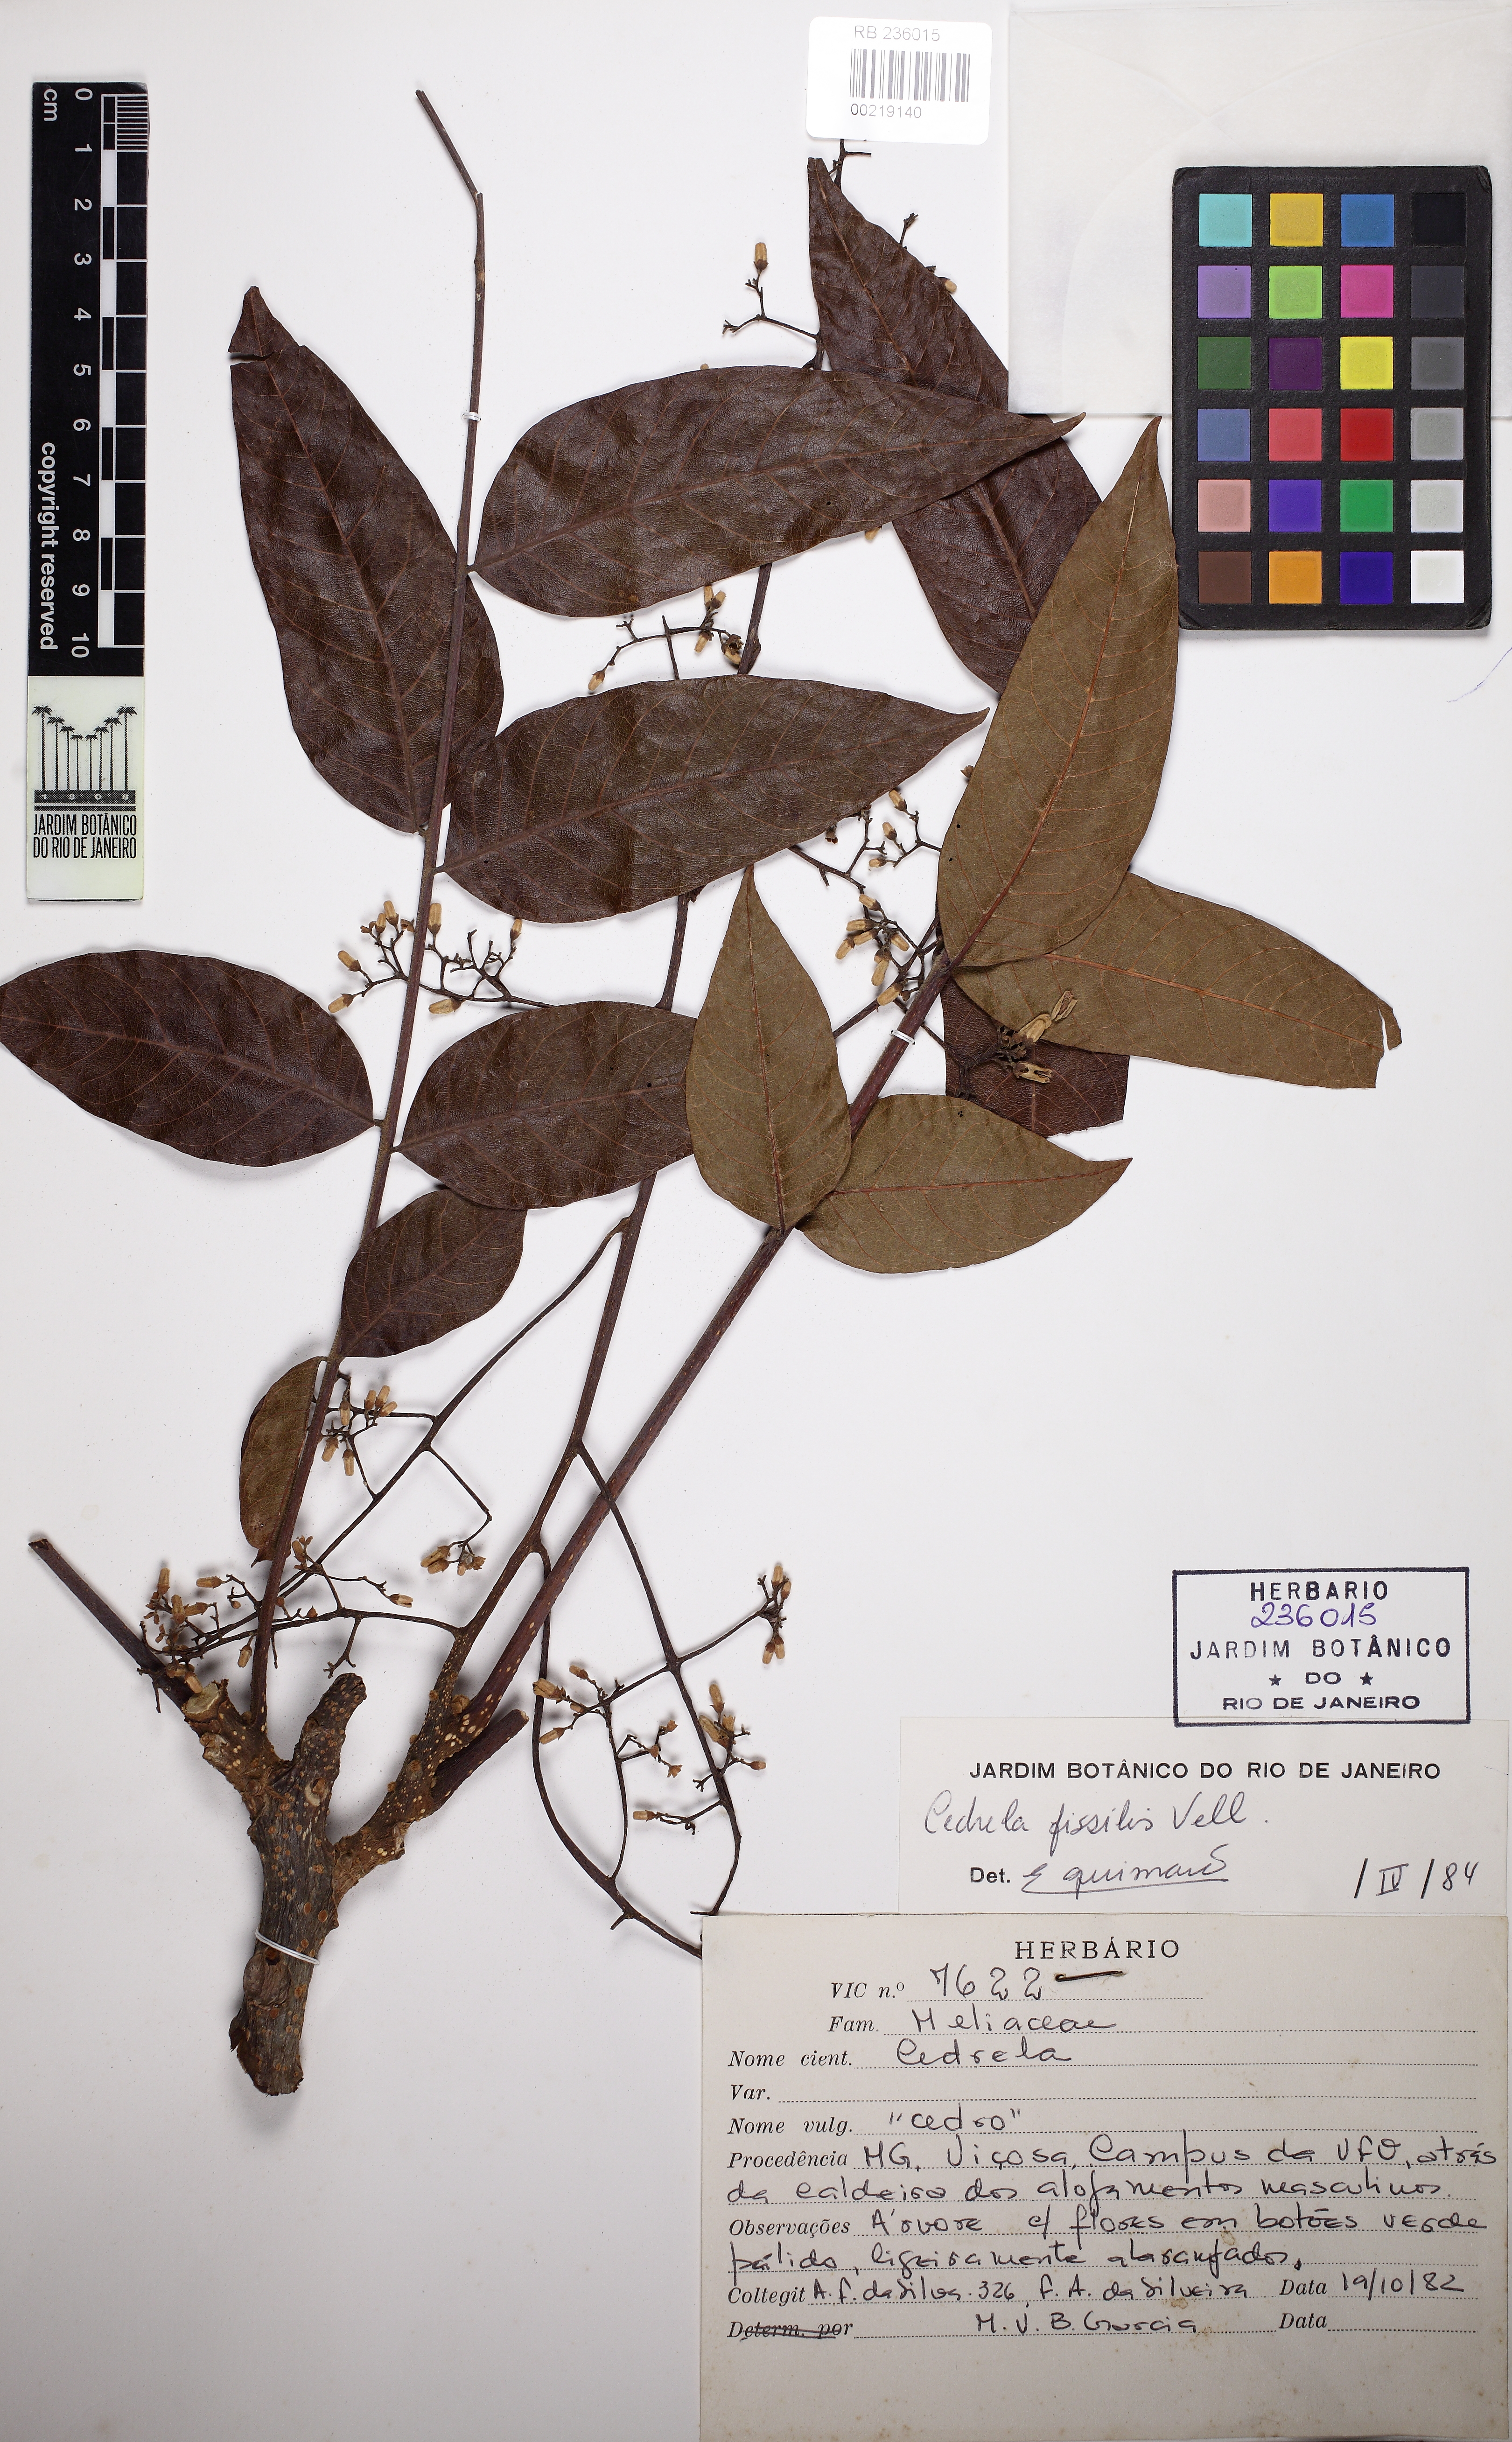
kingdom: Plantae
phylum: Tracheophyta
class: Magnoliopsida
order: Sapindales
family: Meliaceae
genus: Cedrela
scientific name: Cedrela fissilis
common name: Argentine cedar
